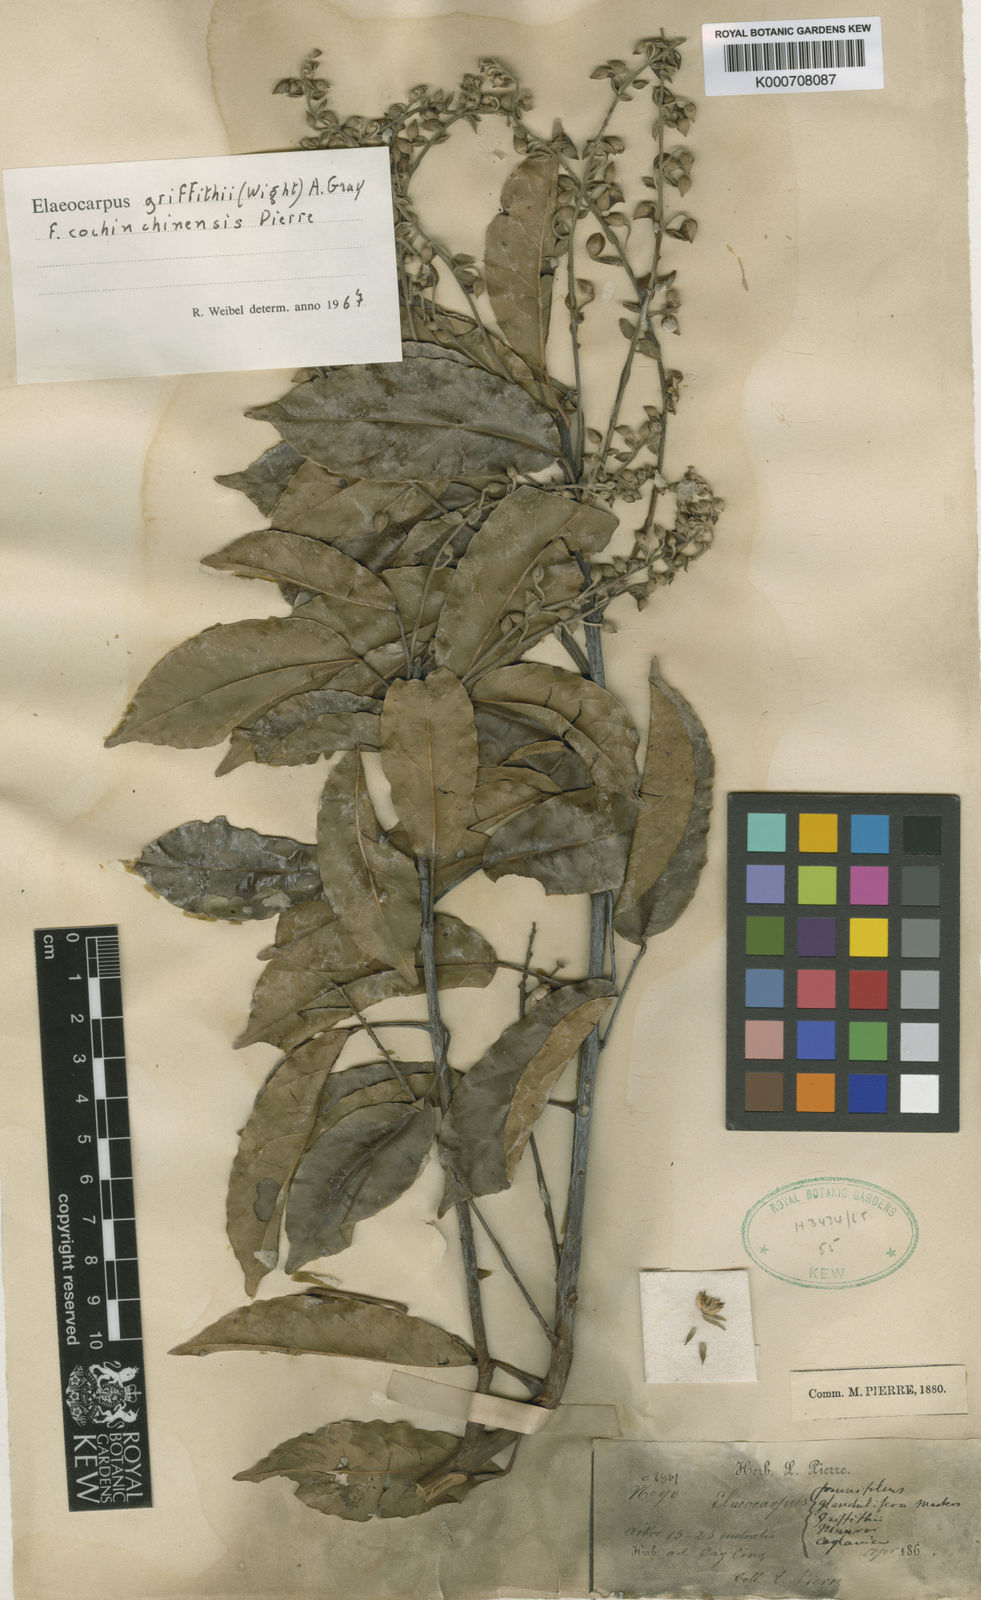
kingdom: Plantae
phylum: Tracheophyta
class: Magnoliopsida
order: Oxalidales
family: Elaeocarpaceae
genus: Elaeocarpus
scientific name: Elaeocarpus griffithii
